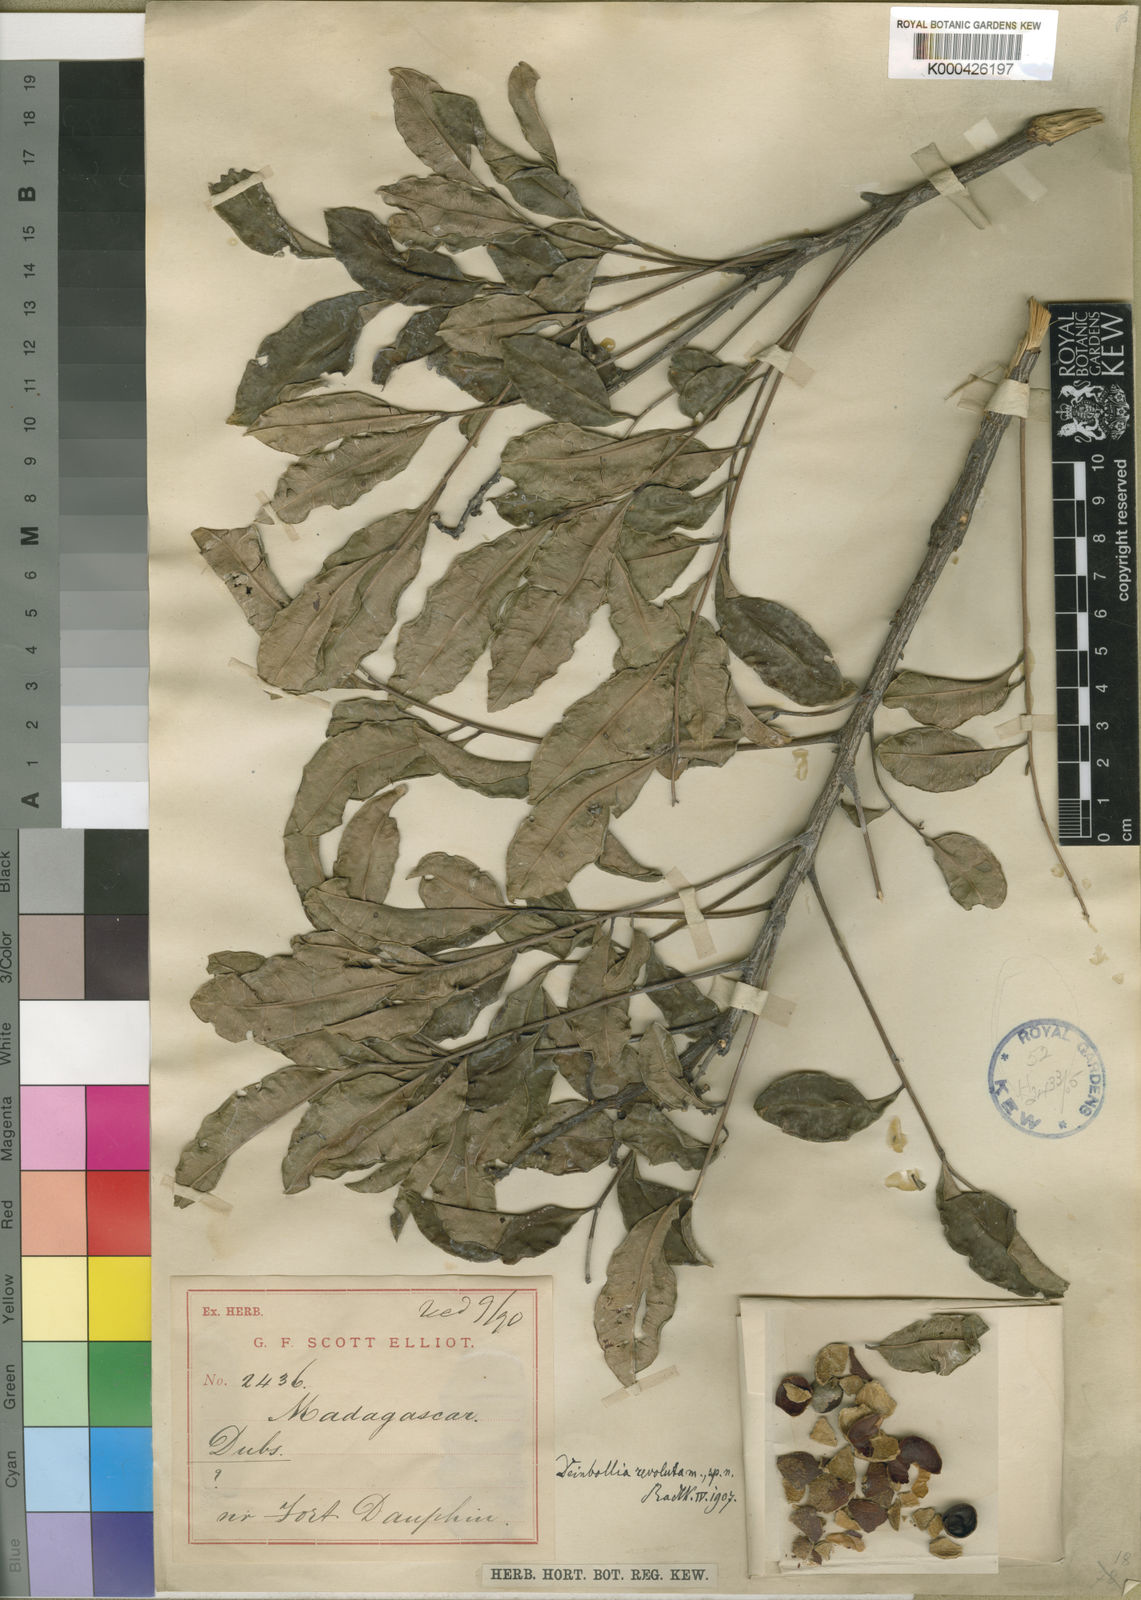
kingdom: Plantae
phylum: Tracheophyta
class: Magnoliopsida
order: Sapindales
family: Sapindaceae
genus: Deinbollia
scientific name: Deinbollia neglecta
